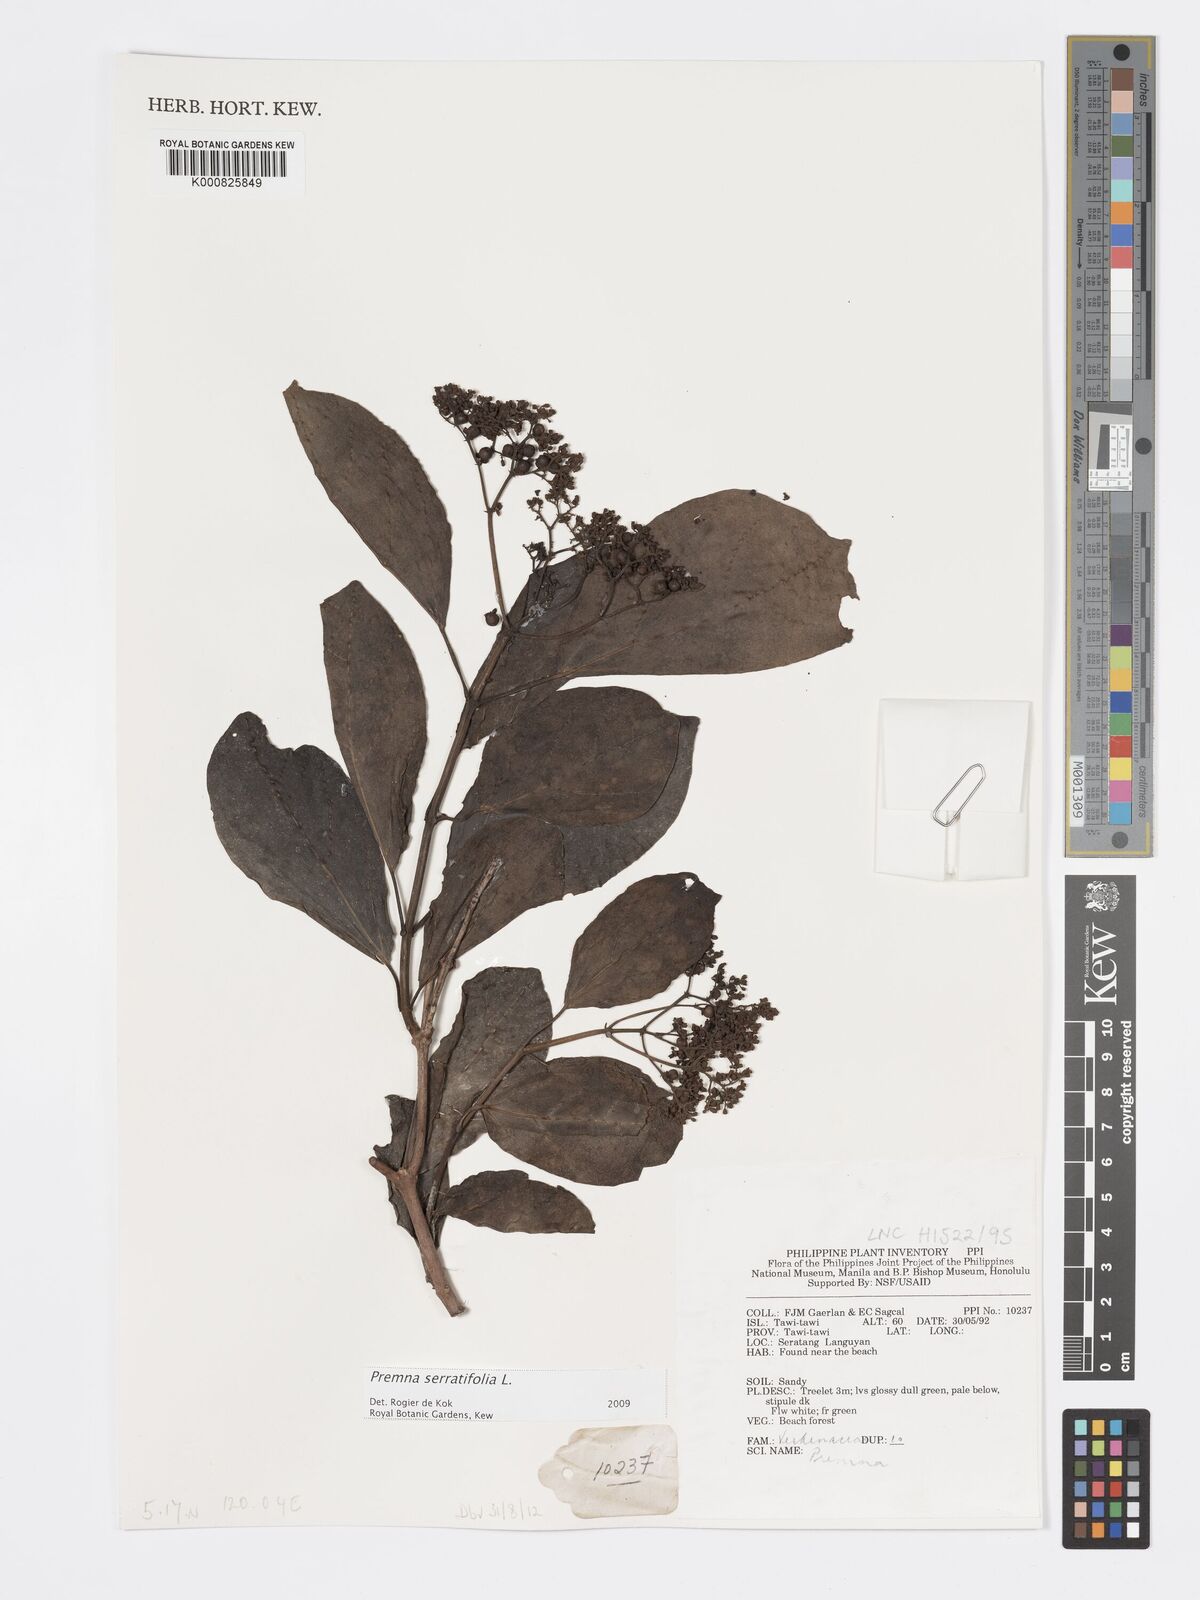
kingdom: Plantae
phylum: Tracheophyta
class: Magnoliopsida
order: Lamiales
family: Lamiaceae
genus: Premna
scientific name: Premna serratifolia
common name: Bastard guelder
